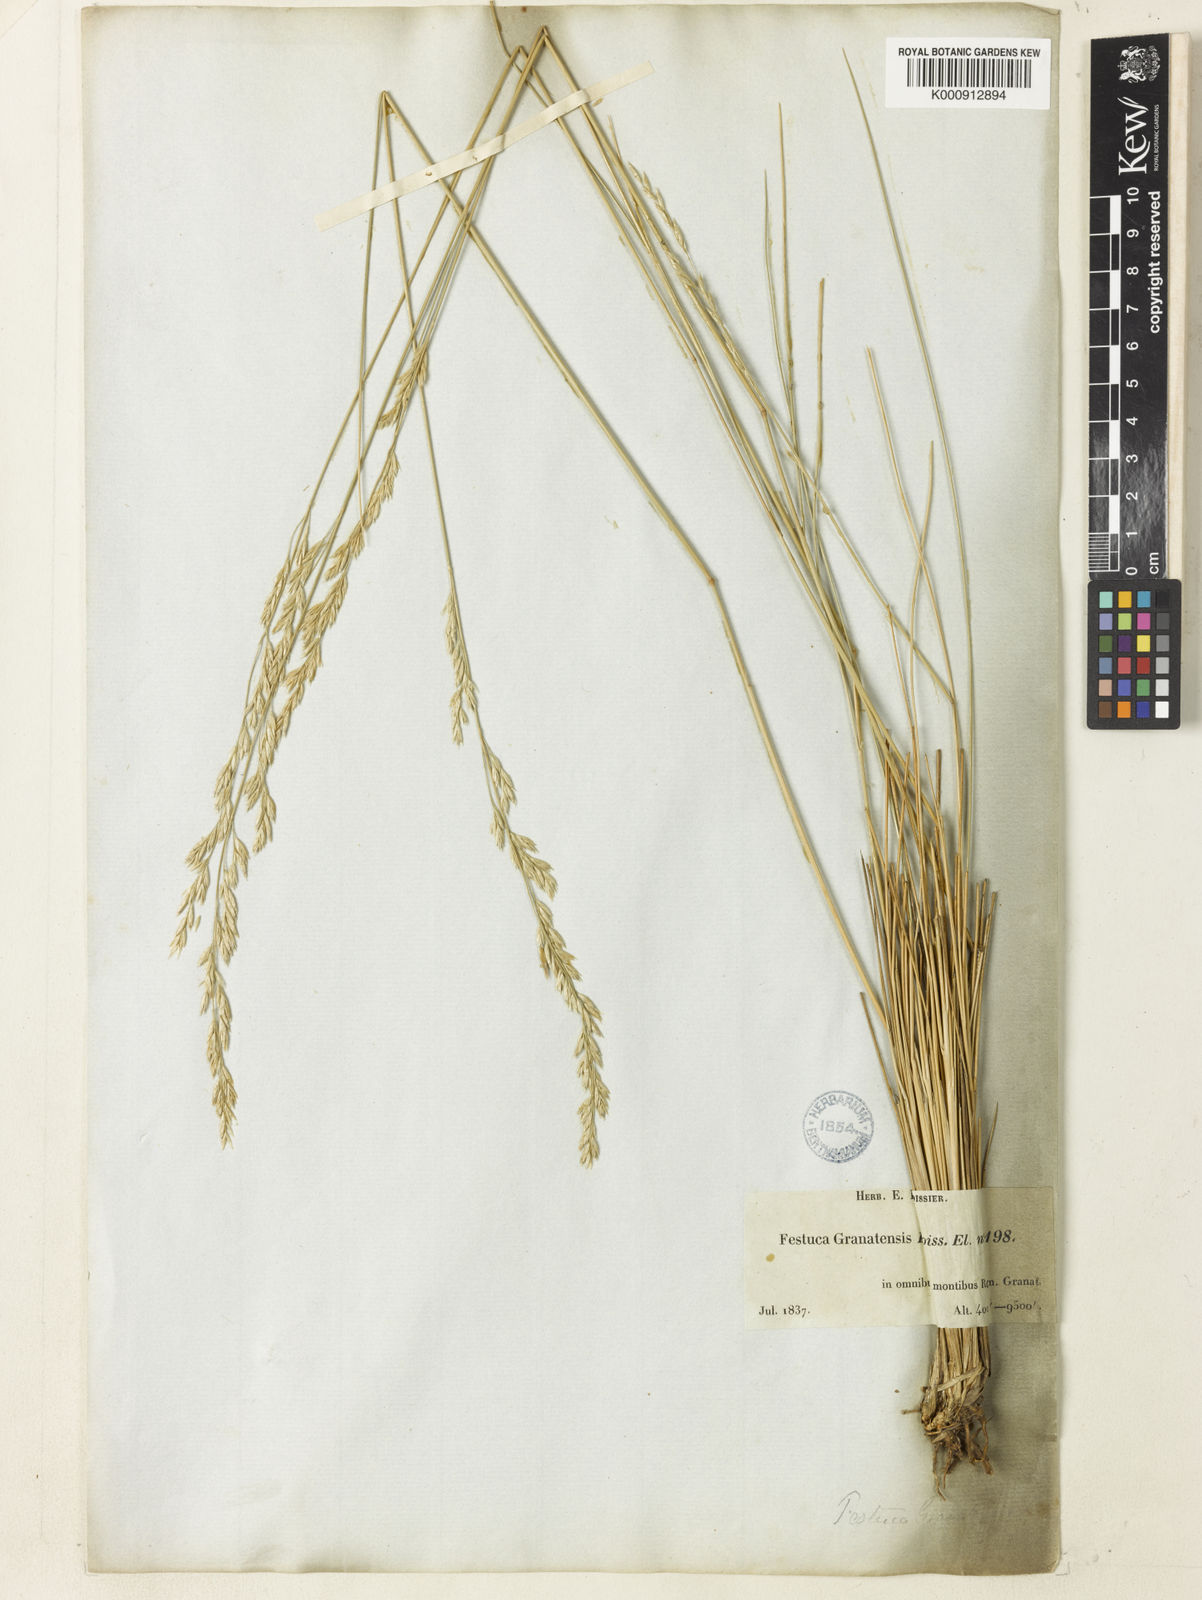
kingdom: Plantae
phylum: Tracheophyta
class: Liliopsida
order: Poales
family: Poaceae
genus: Festuca
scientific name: Festuca scariosa
